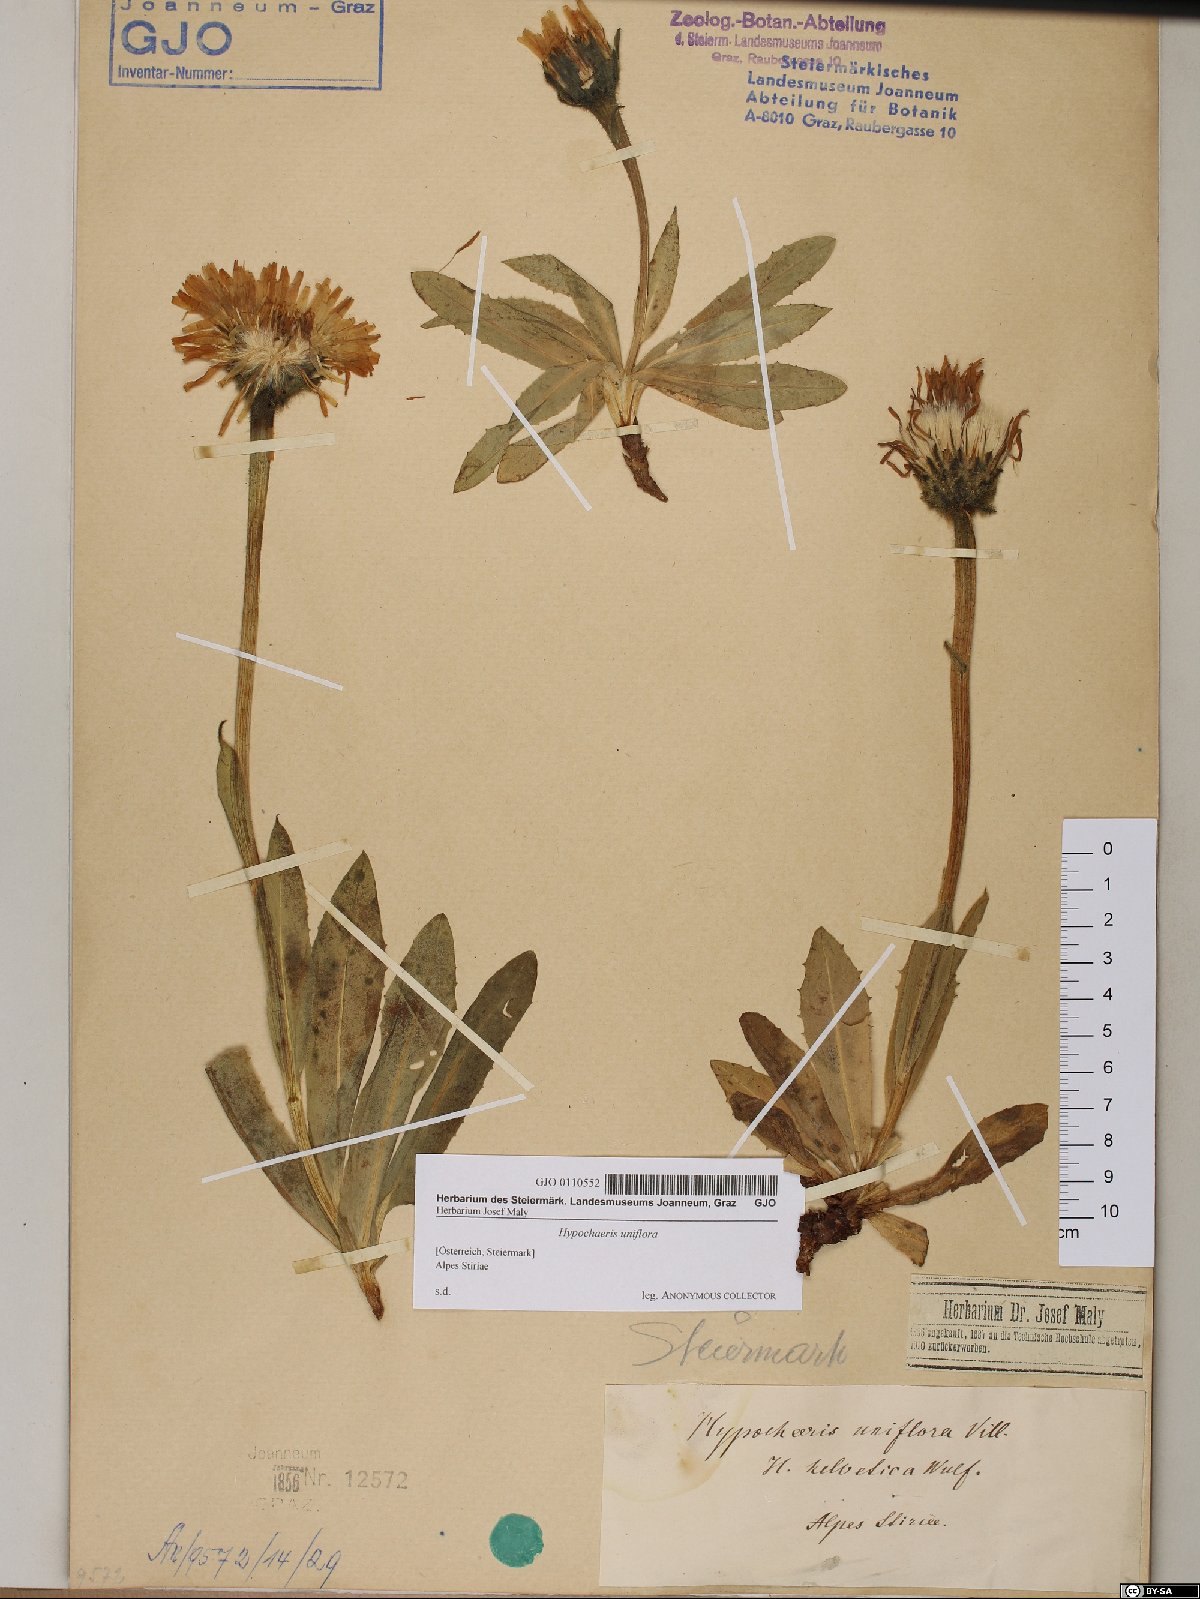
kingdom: Plantae
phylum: Tracheophyta
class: Magnoliopsida
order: Asterales
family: Asteraceae
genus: Trommsdorffia
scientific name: Trommsdorffia uniflora
